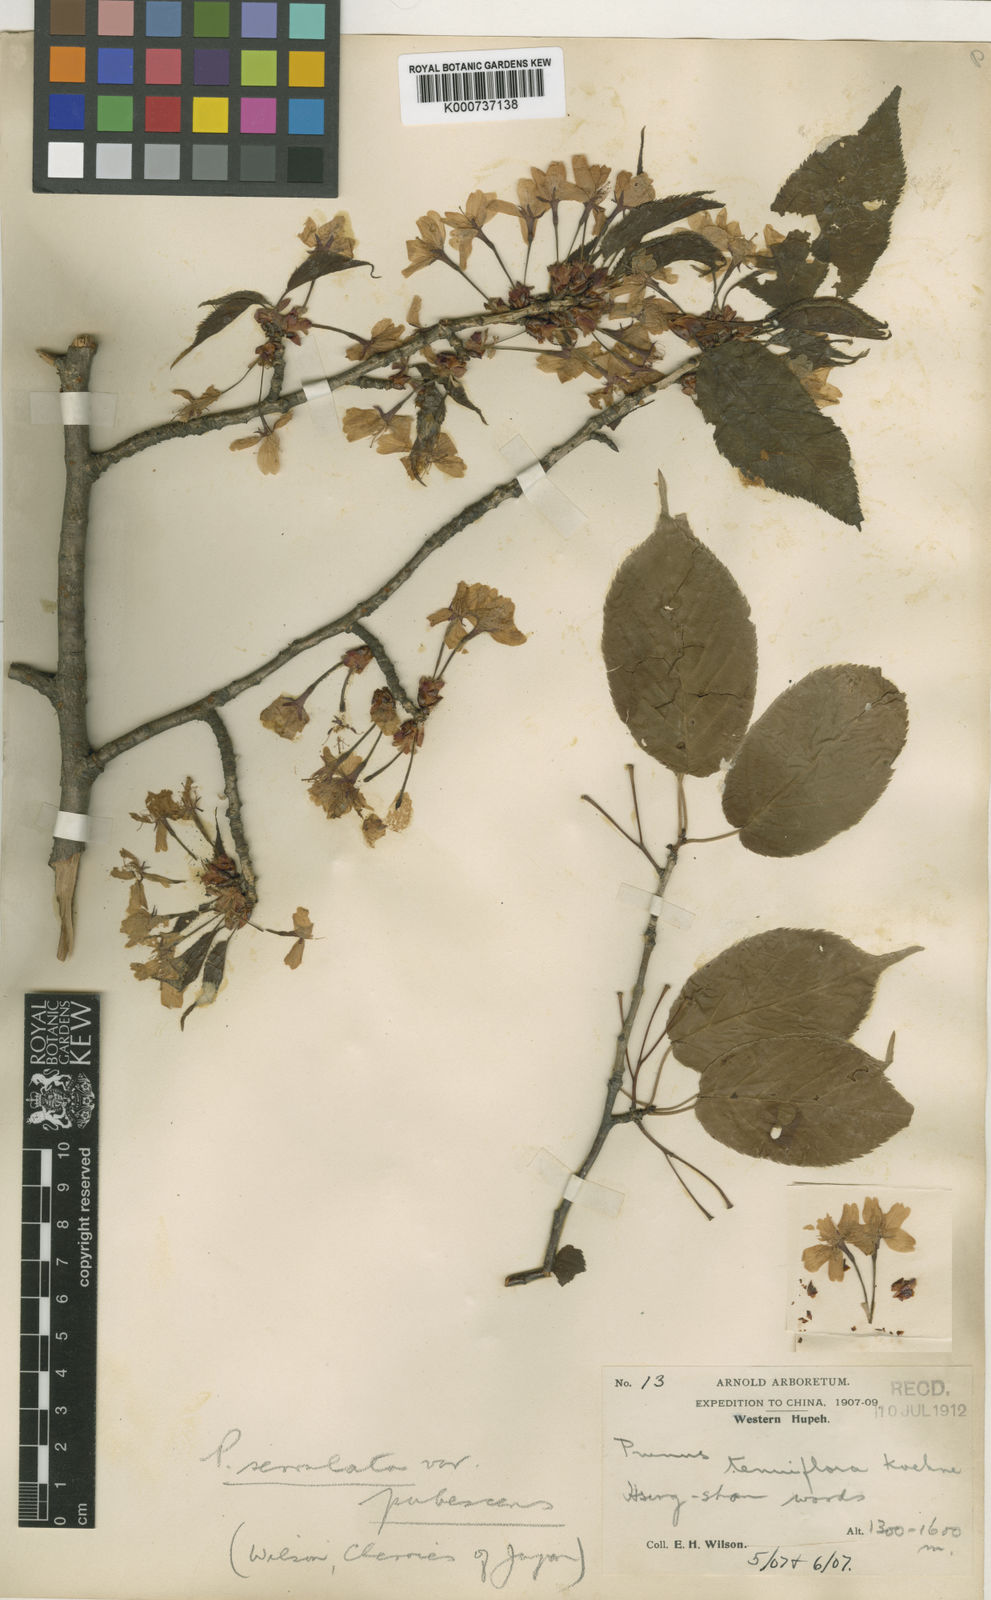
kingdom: Plantae
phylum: Tracheophyta
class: Magnoliopsida
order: Rosales
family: Rosaceae
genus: Prunus
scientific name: Prunus leveilleana
